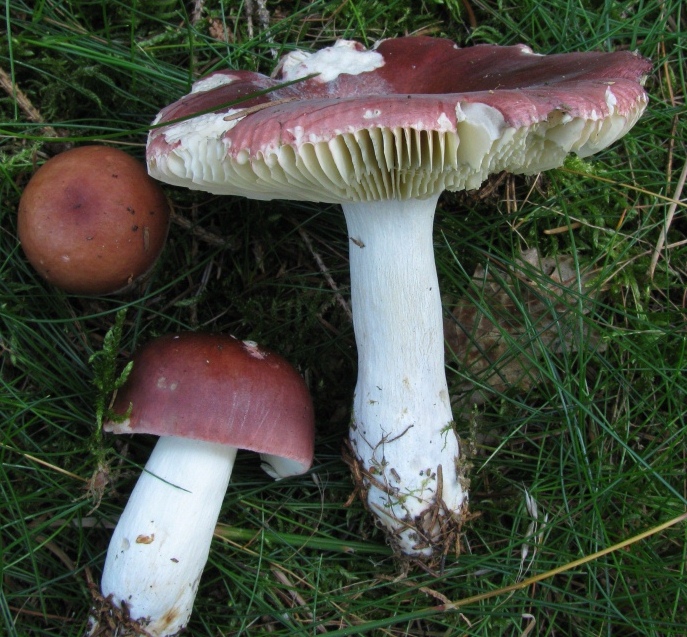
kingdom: Fungi
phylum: Basidiomycota
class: Agaricomycetes
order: Russulales
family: Russulaceae
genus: Russula
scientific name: Russula vinosa
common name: vinrød skørhat
